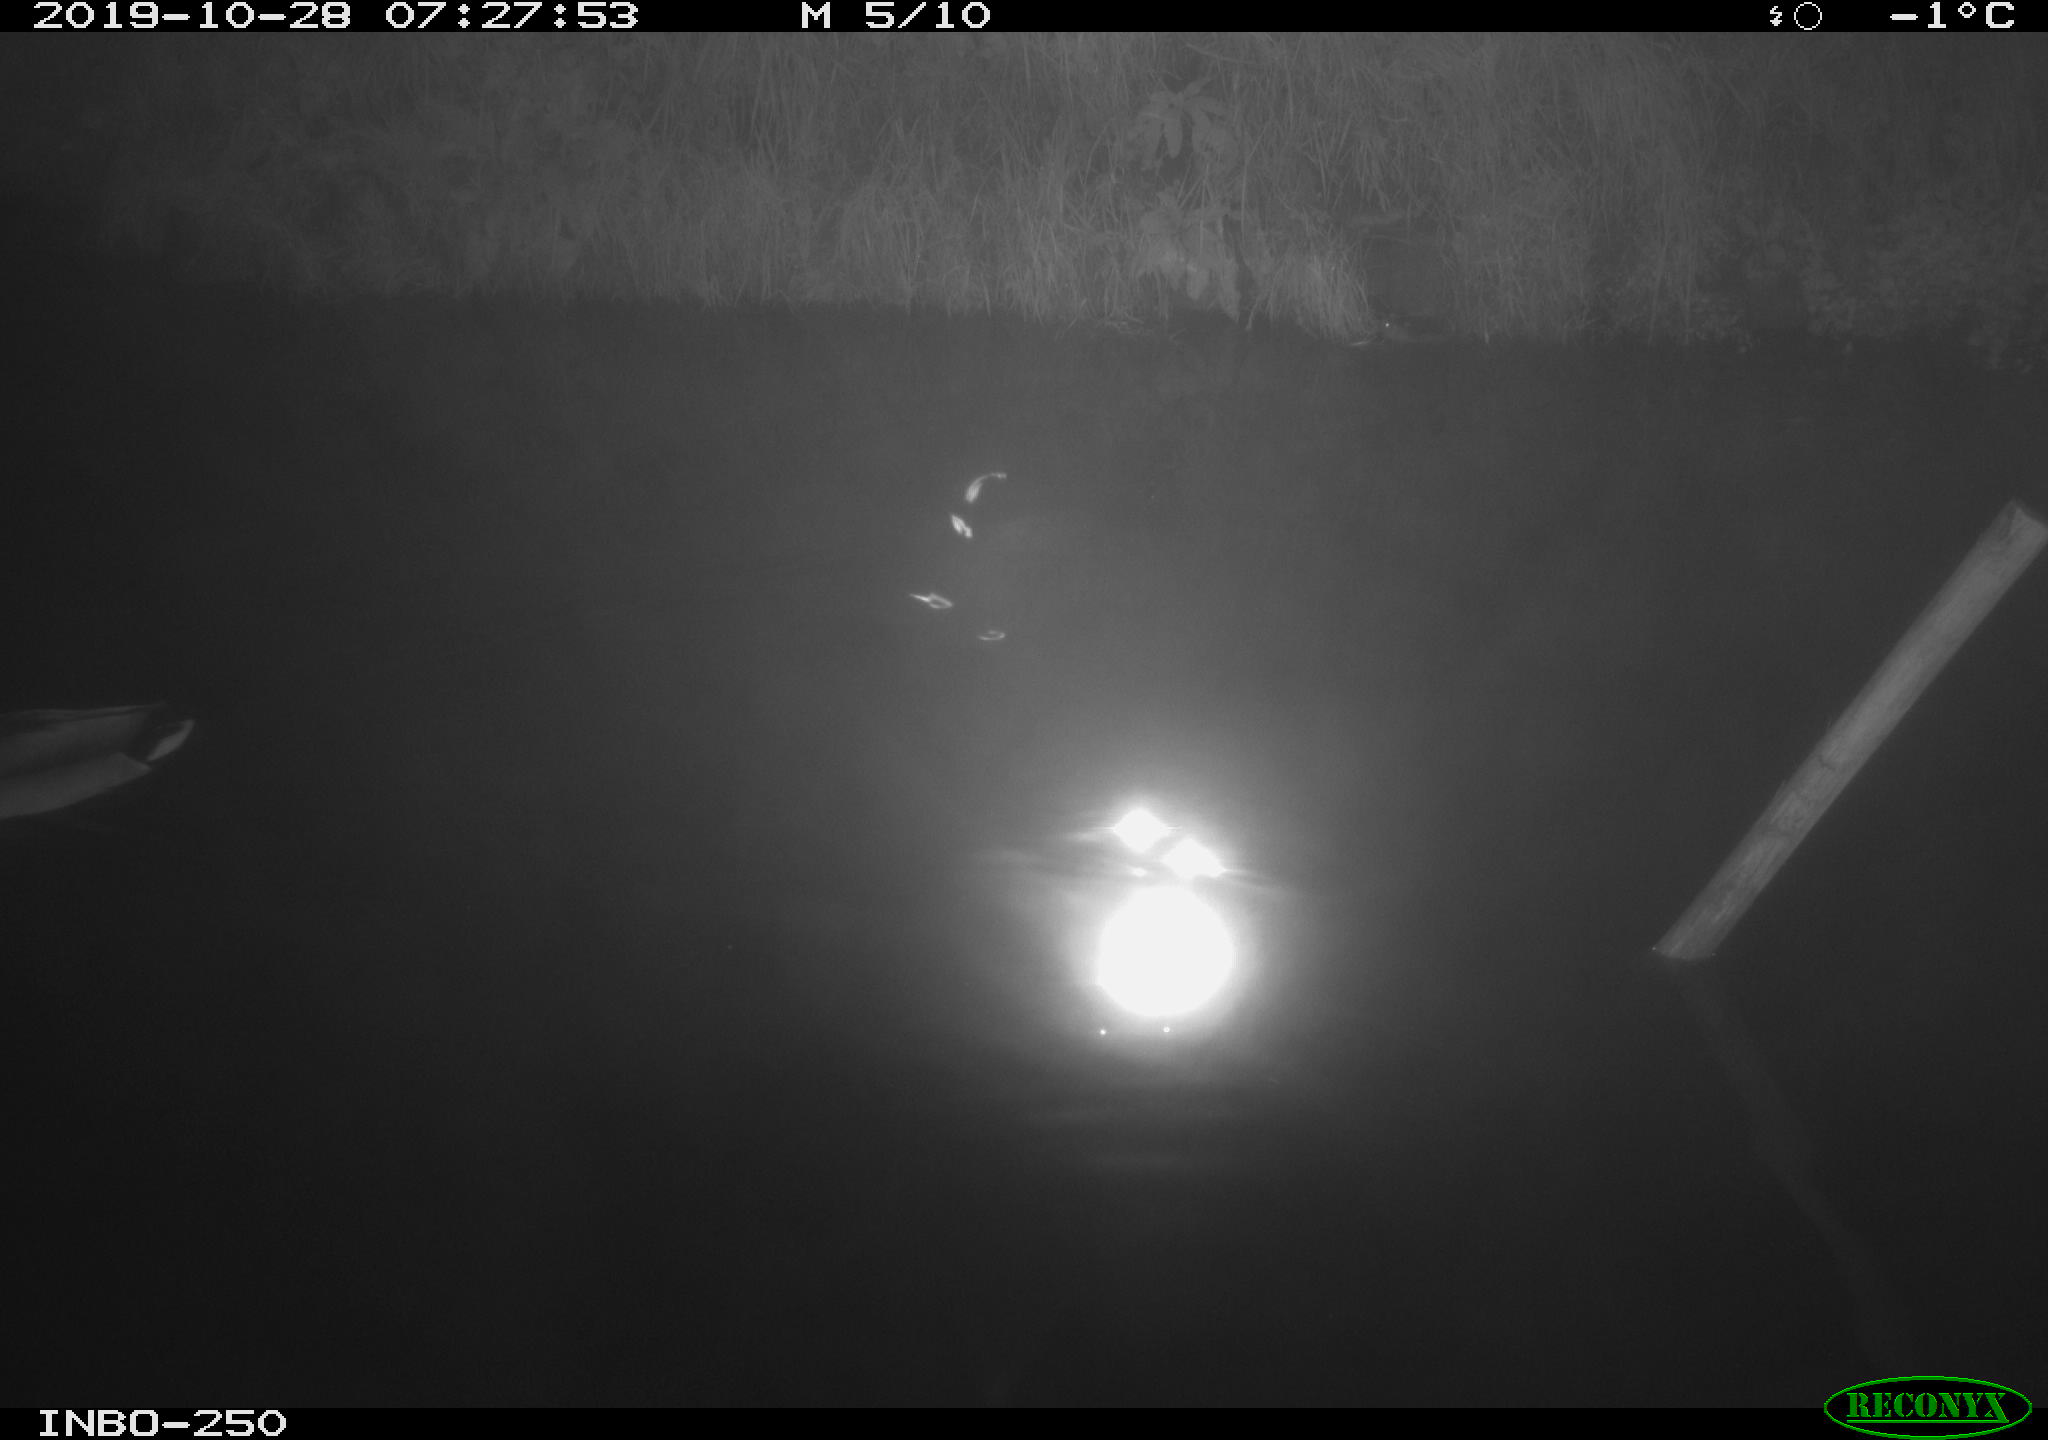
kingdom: Animalia
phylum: Chordata
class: Aves
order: Anseriformes
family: Anatidae
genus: Anas
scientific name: Anas platyrhynchos
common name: Mallard
